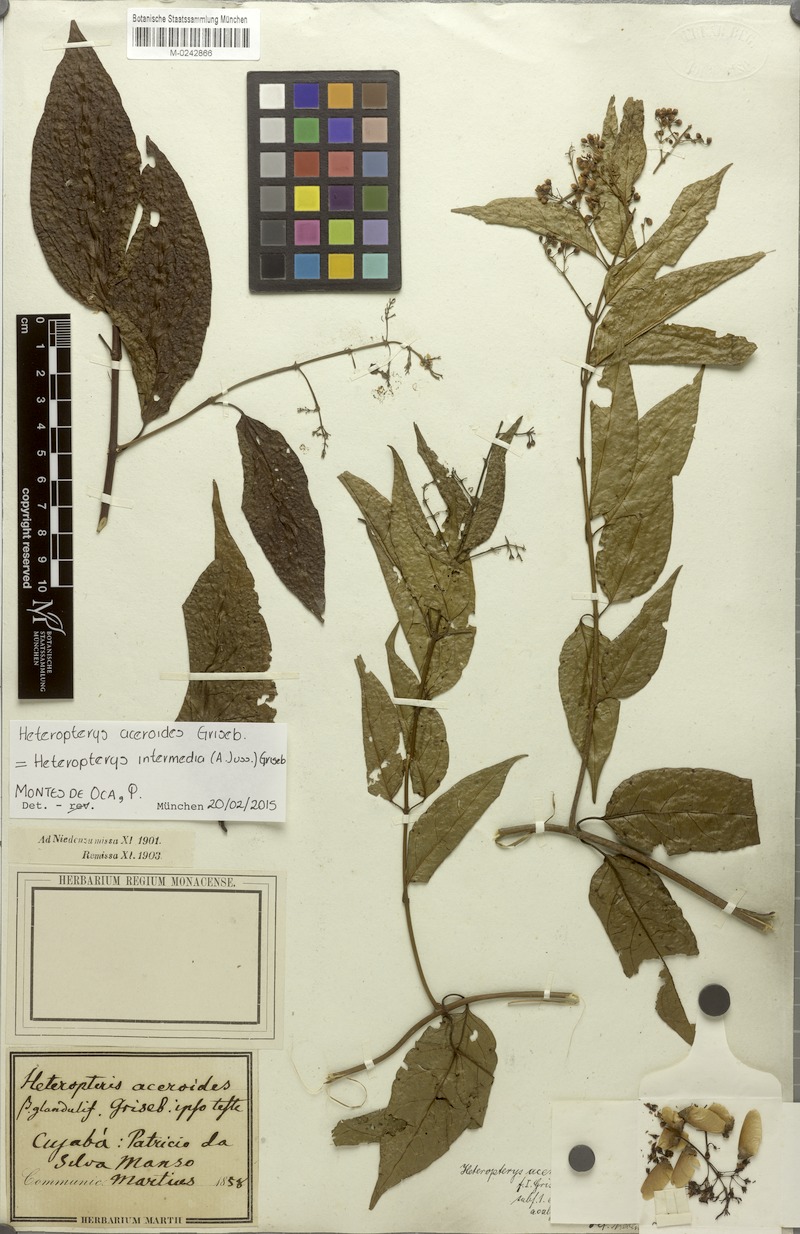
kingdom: Plantae
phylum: Tracheophyta
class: Magnoliopsida
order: Malpighiales
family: Malpighiaceae
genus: Heteropterys
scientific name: Heteropterys intermedia
